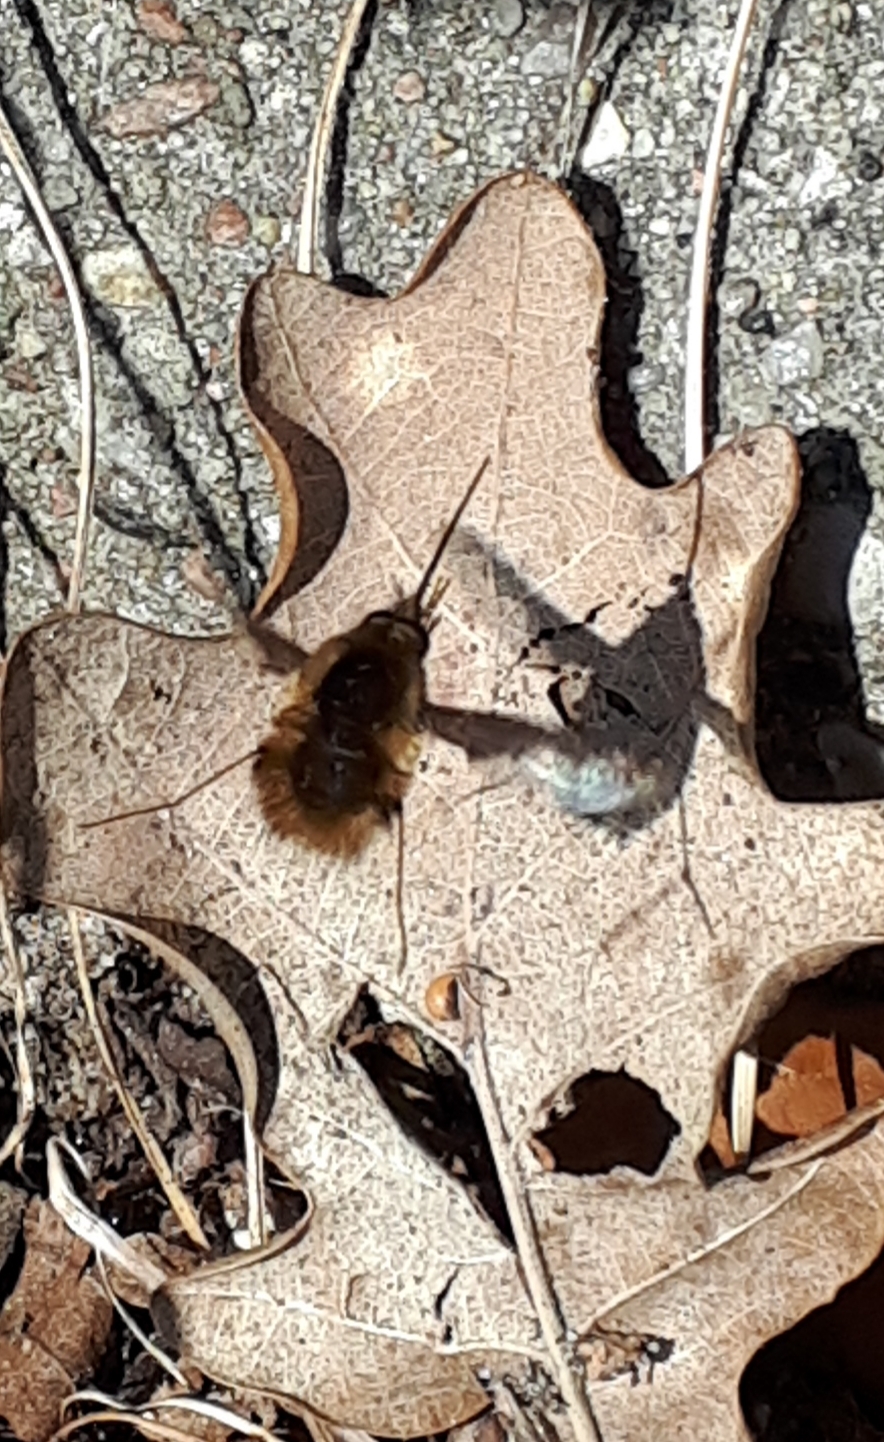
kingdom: Animalia
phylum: Arthropoda
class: Insecta
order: Diptera
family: Bombyliidae
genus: Bombylius
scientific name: Bombylius major
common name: Stor humleflue
